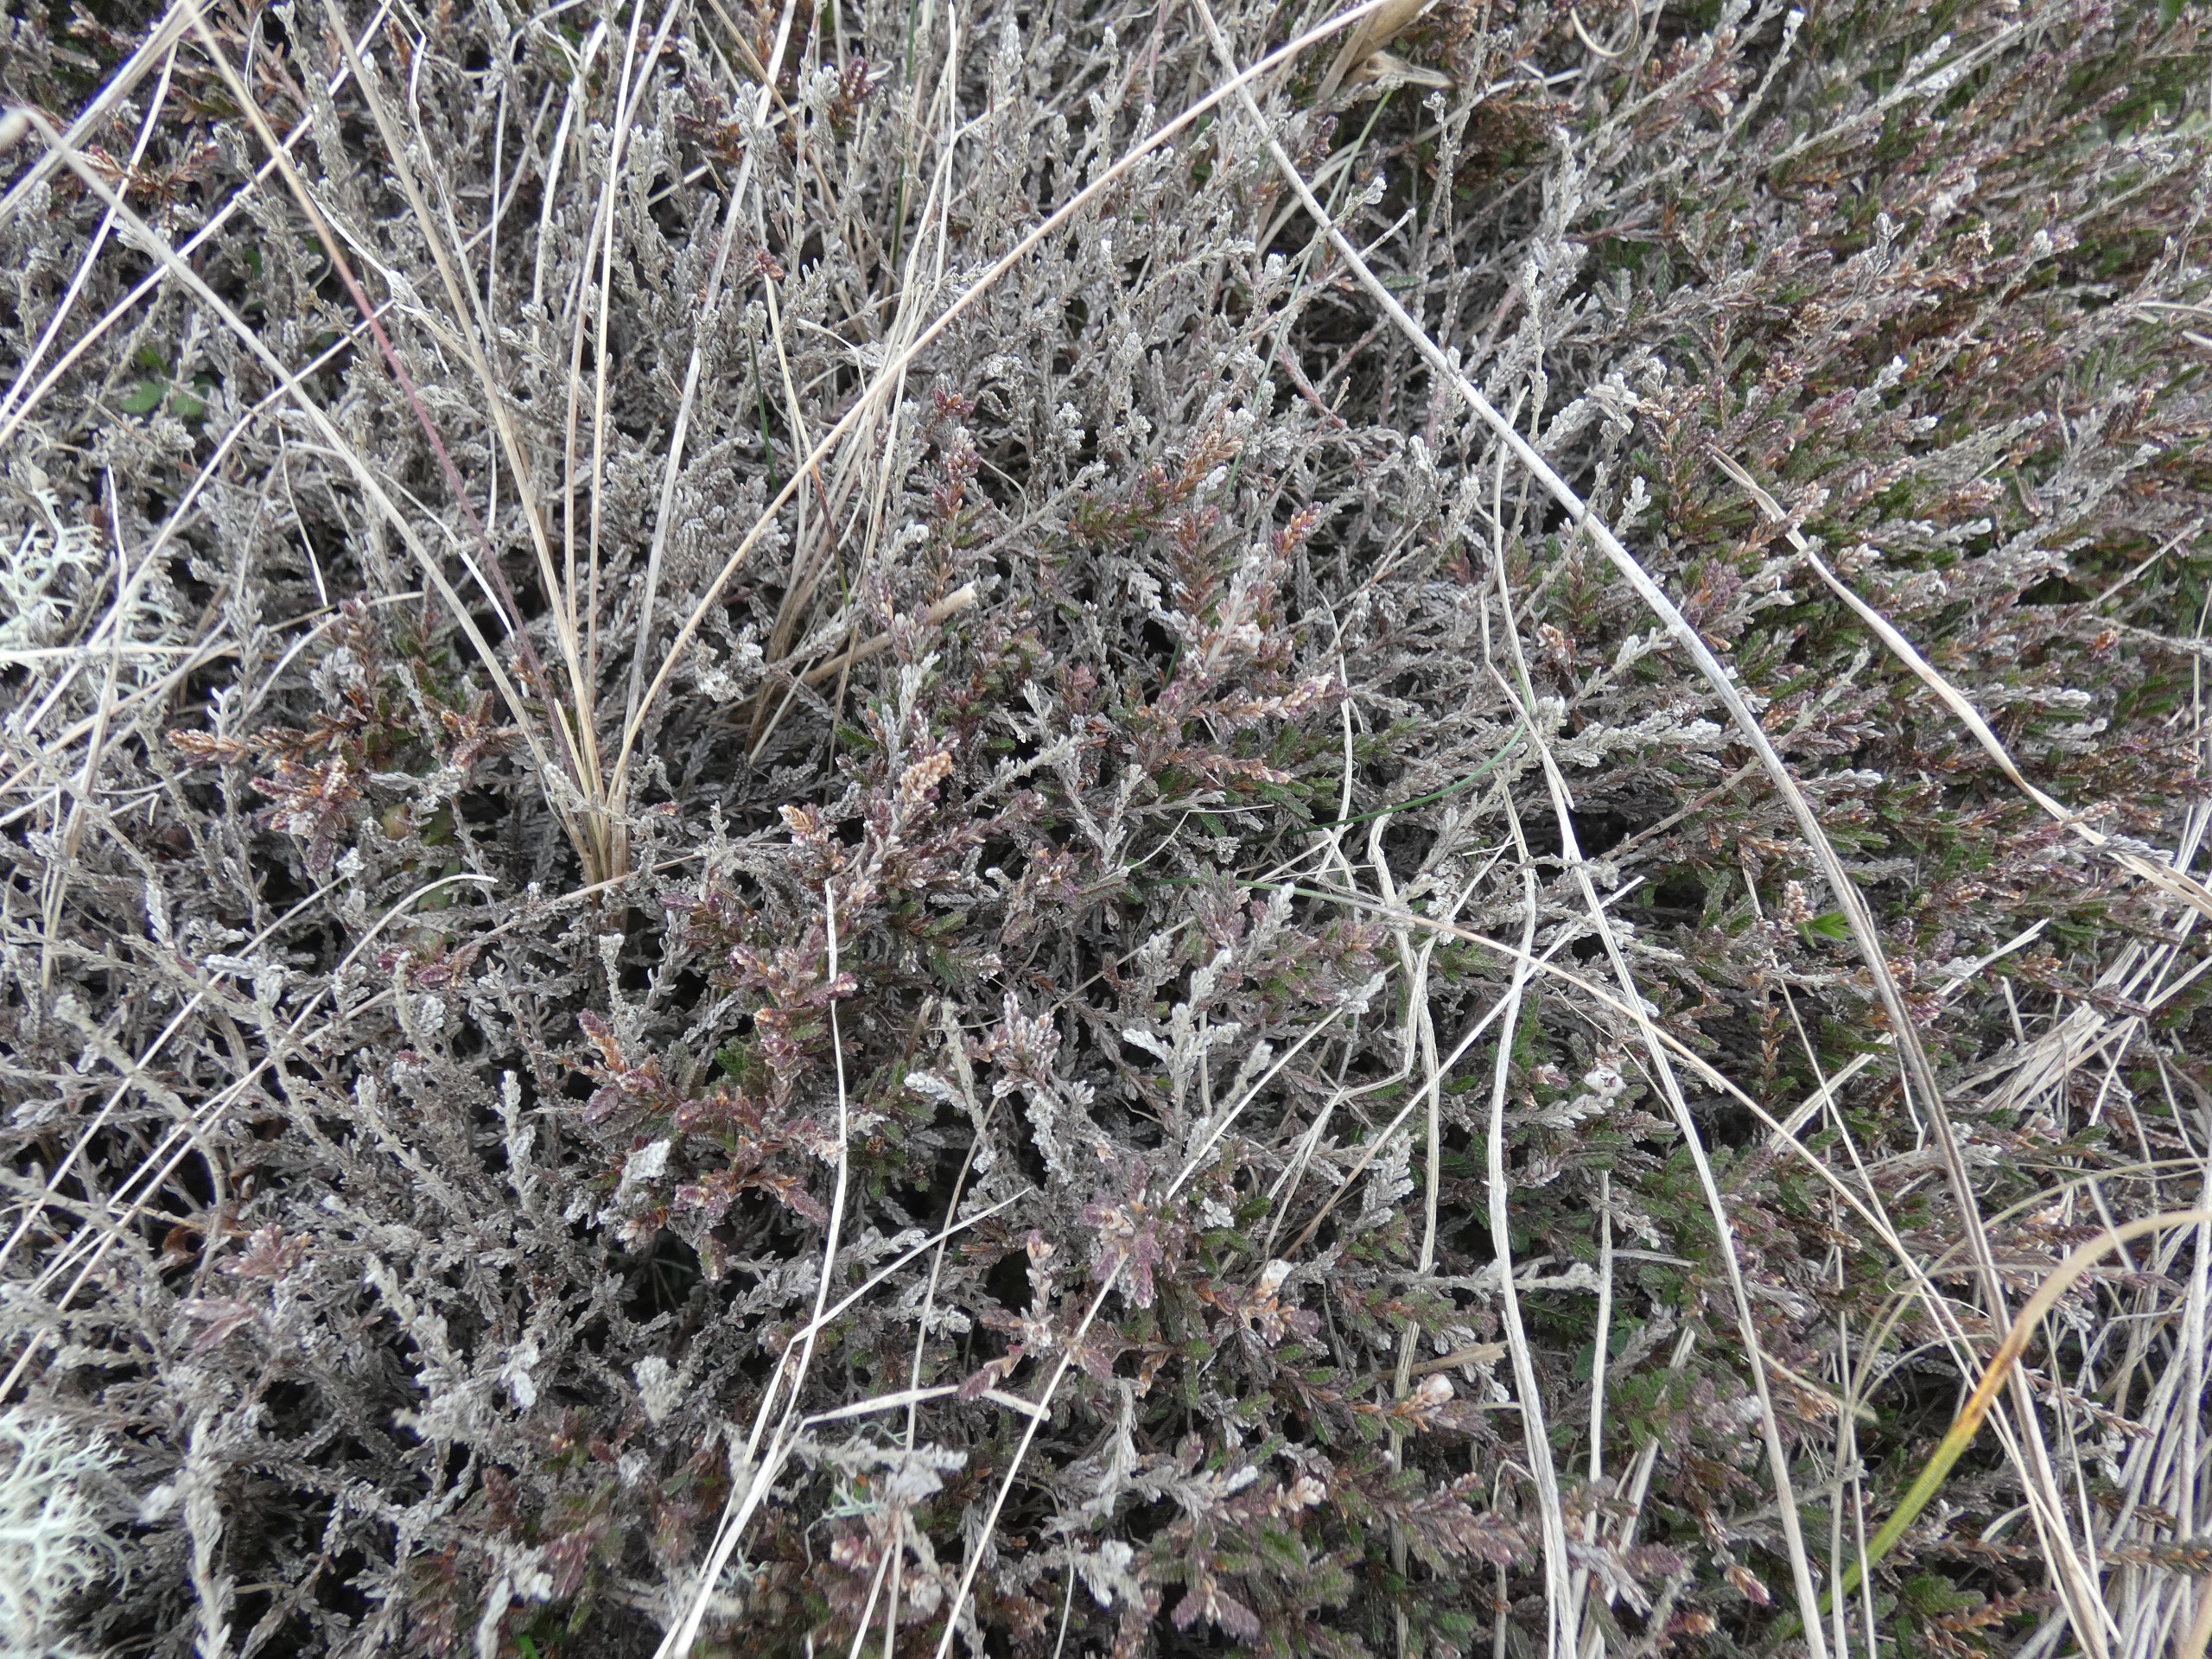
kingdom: Plantae
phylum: Tracheophyta
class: Magnoliopsida
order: Ericales
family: Ericaceae
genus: Calluna
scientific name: Calluna vulgaris
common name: Hedelyng
